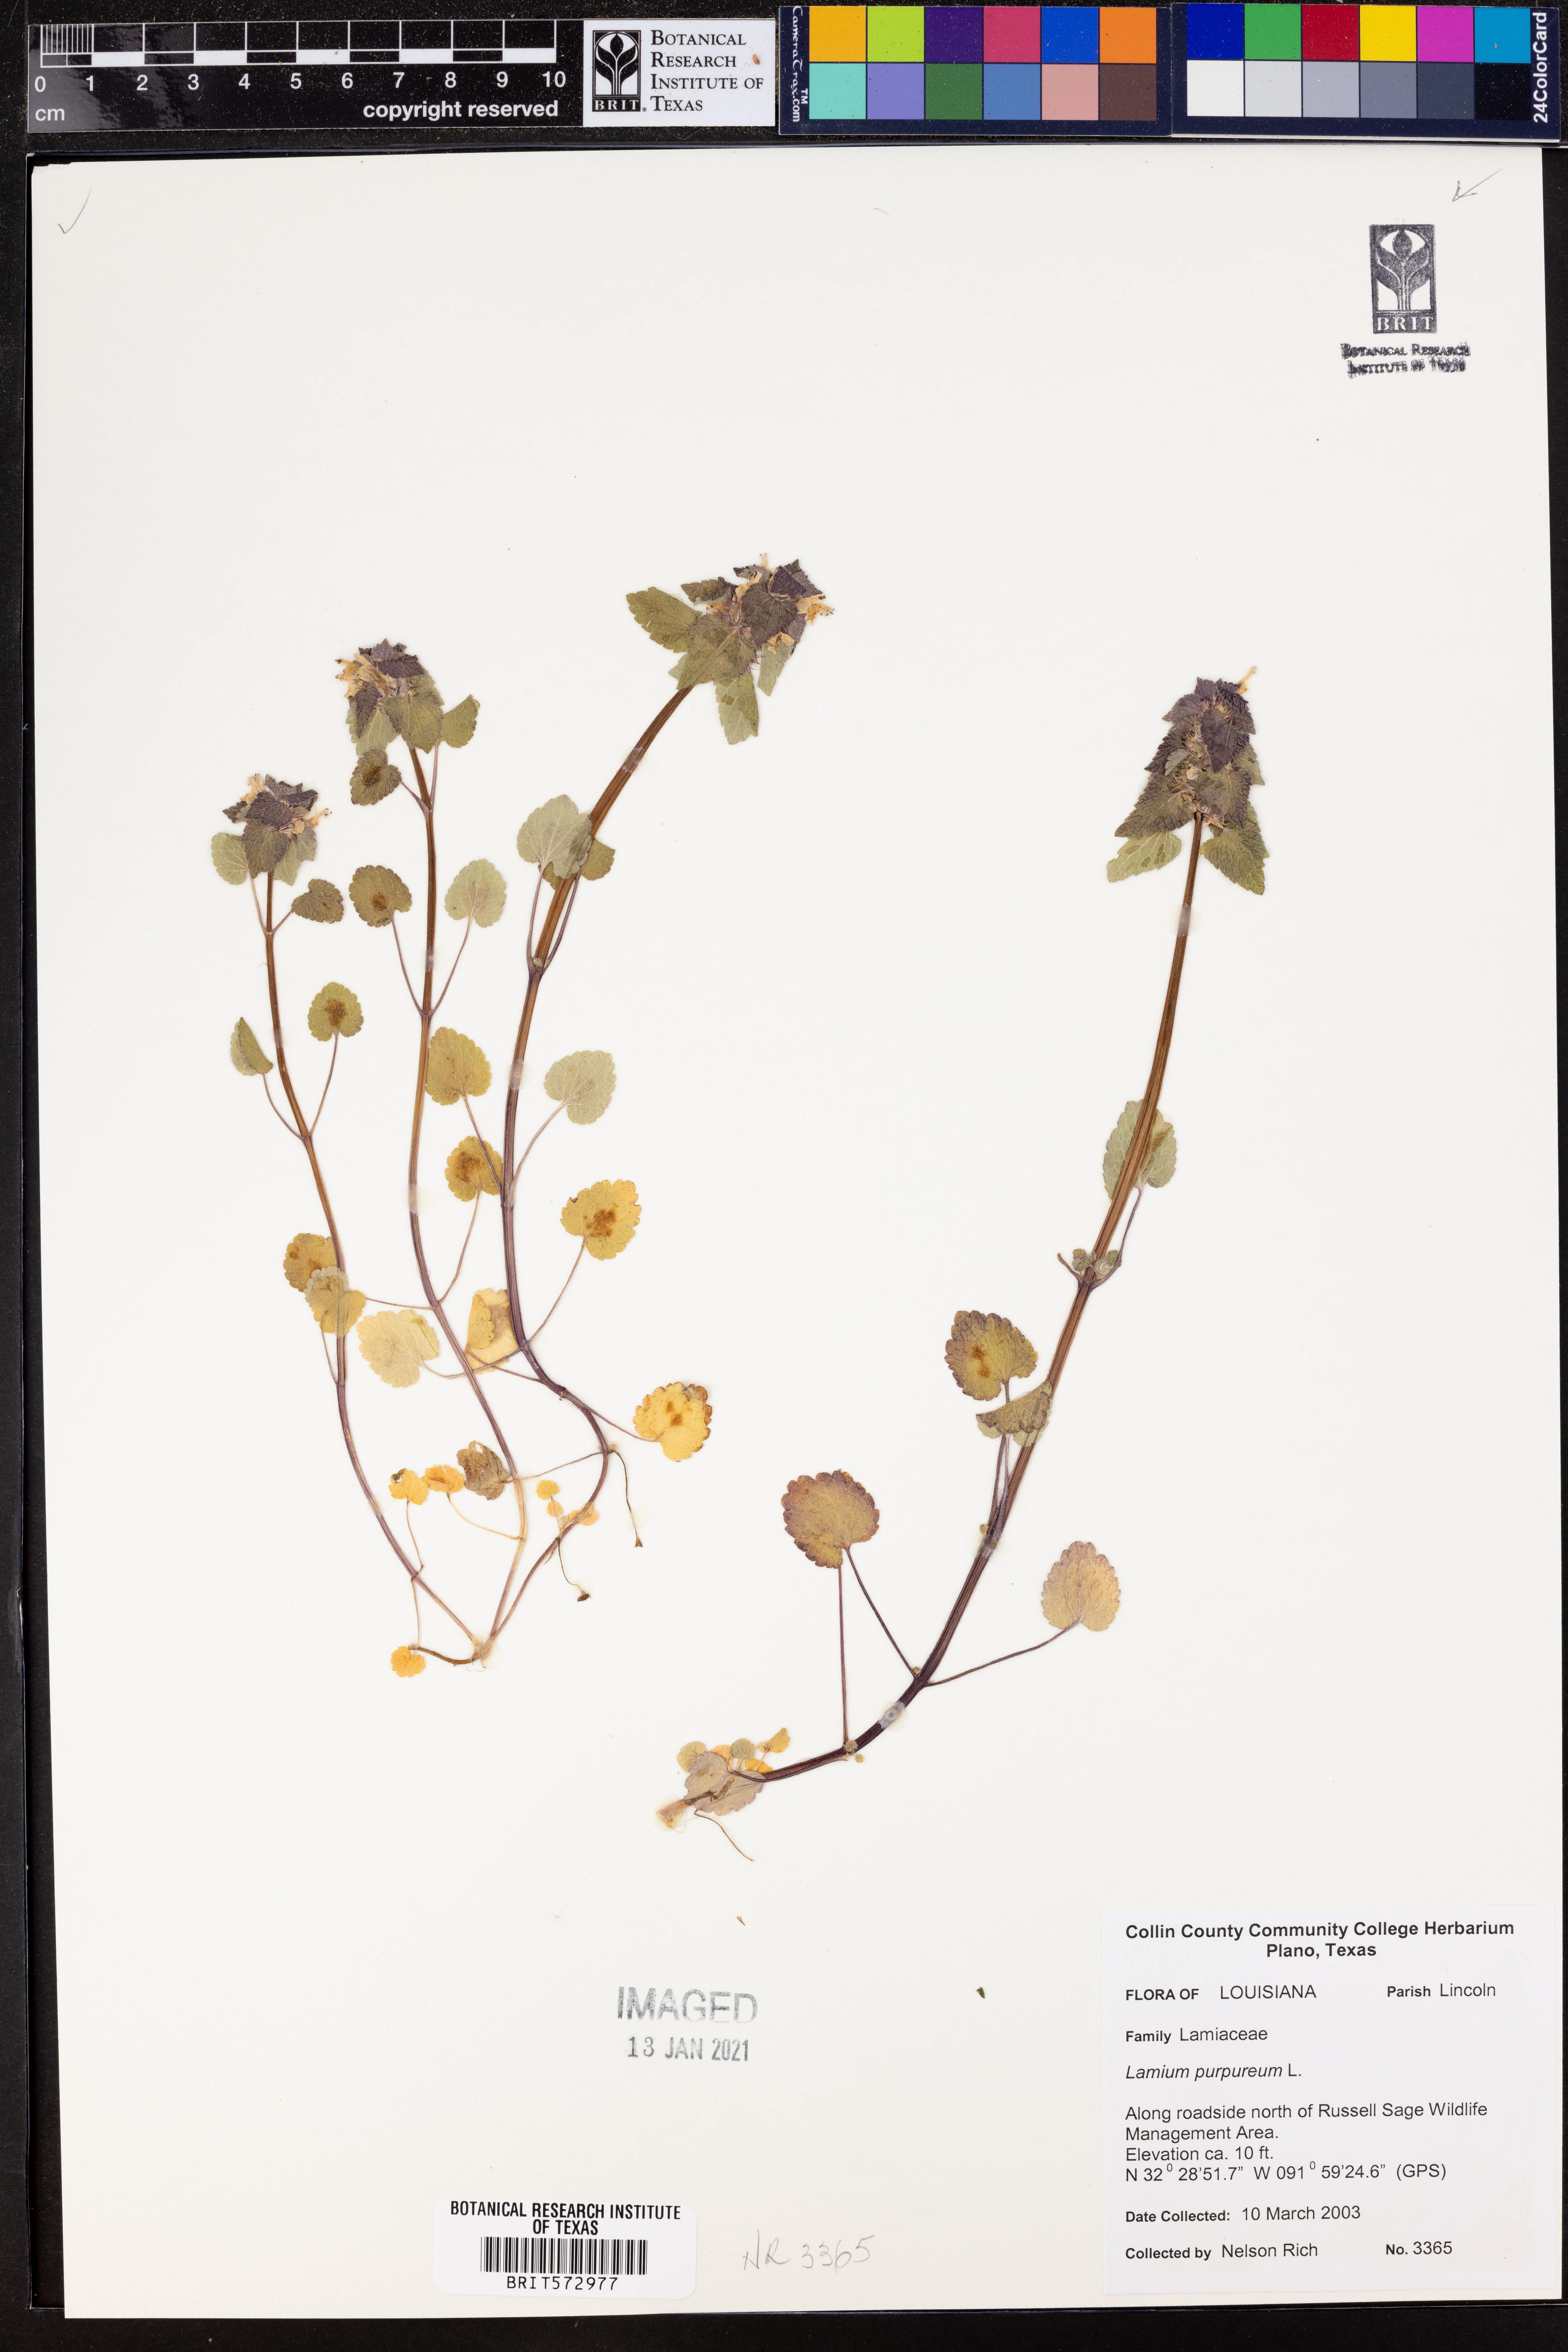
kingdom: Plantae
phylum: Tracheophyta
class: Magnoliopsida
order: Lamiales
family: Lamiaceae
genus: Lamium
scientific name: Lamium purpureum
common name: Red dead-nettle
